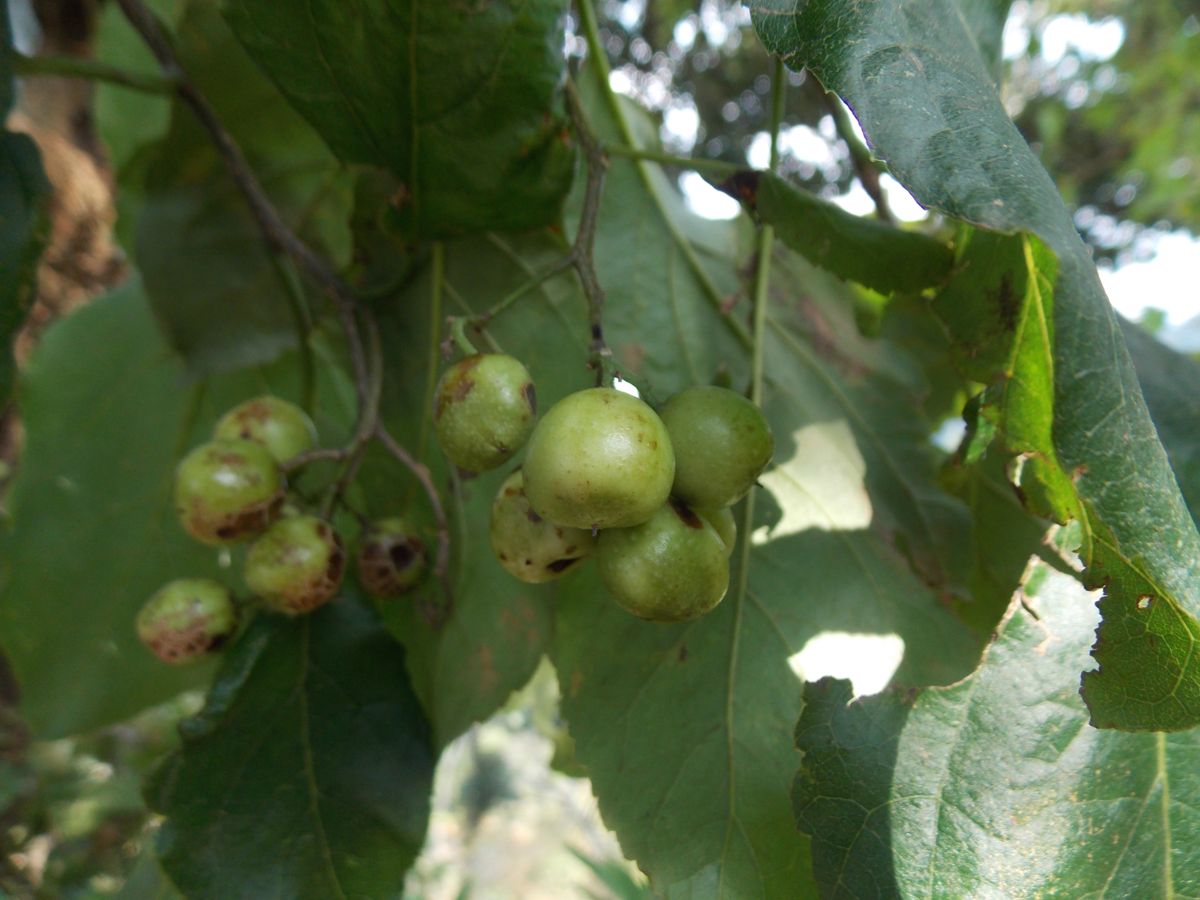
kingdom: Plantae
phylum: Tracheophyta
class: Magnoliopsida
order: Boraginales
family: Ehretiaceae
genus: Ehretia
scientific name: Ehretia latifolia
